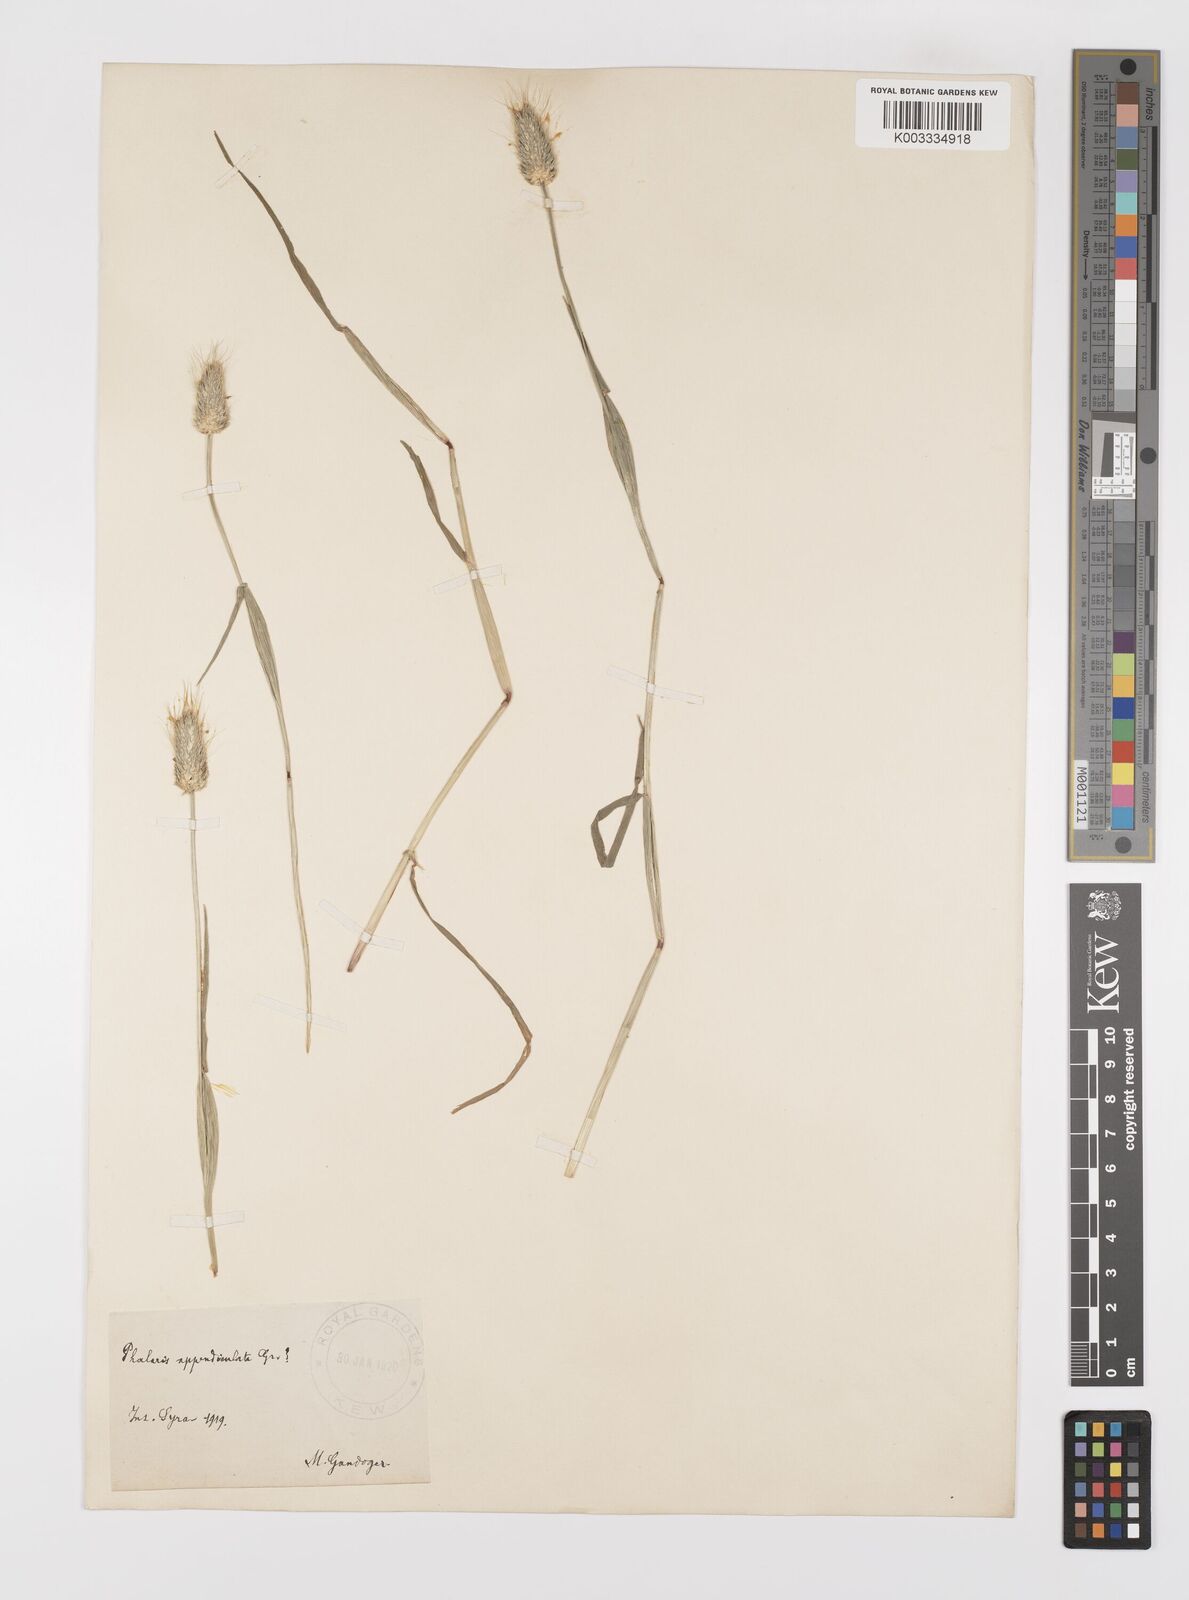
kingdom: Plantae
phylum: Tracheophyta
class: Liliopsida
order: Poales
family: Poaceae
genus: Alopecurus
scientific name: Alopecurus rendlei
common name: Rendle's meadow foxtail
